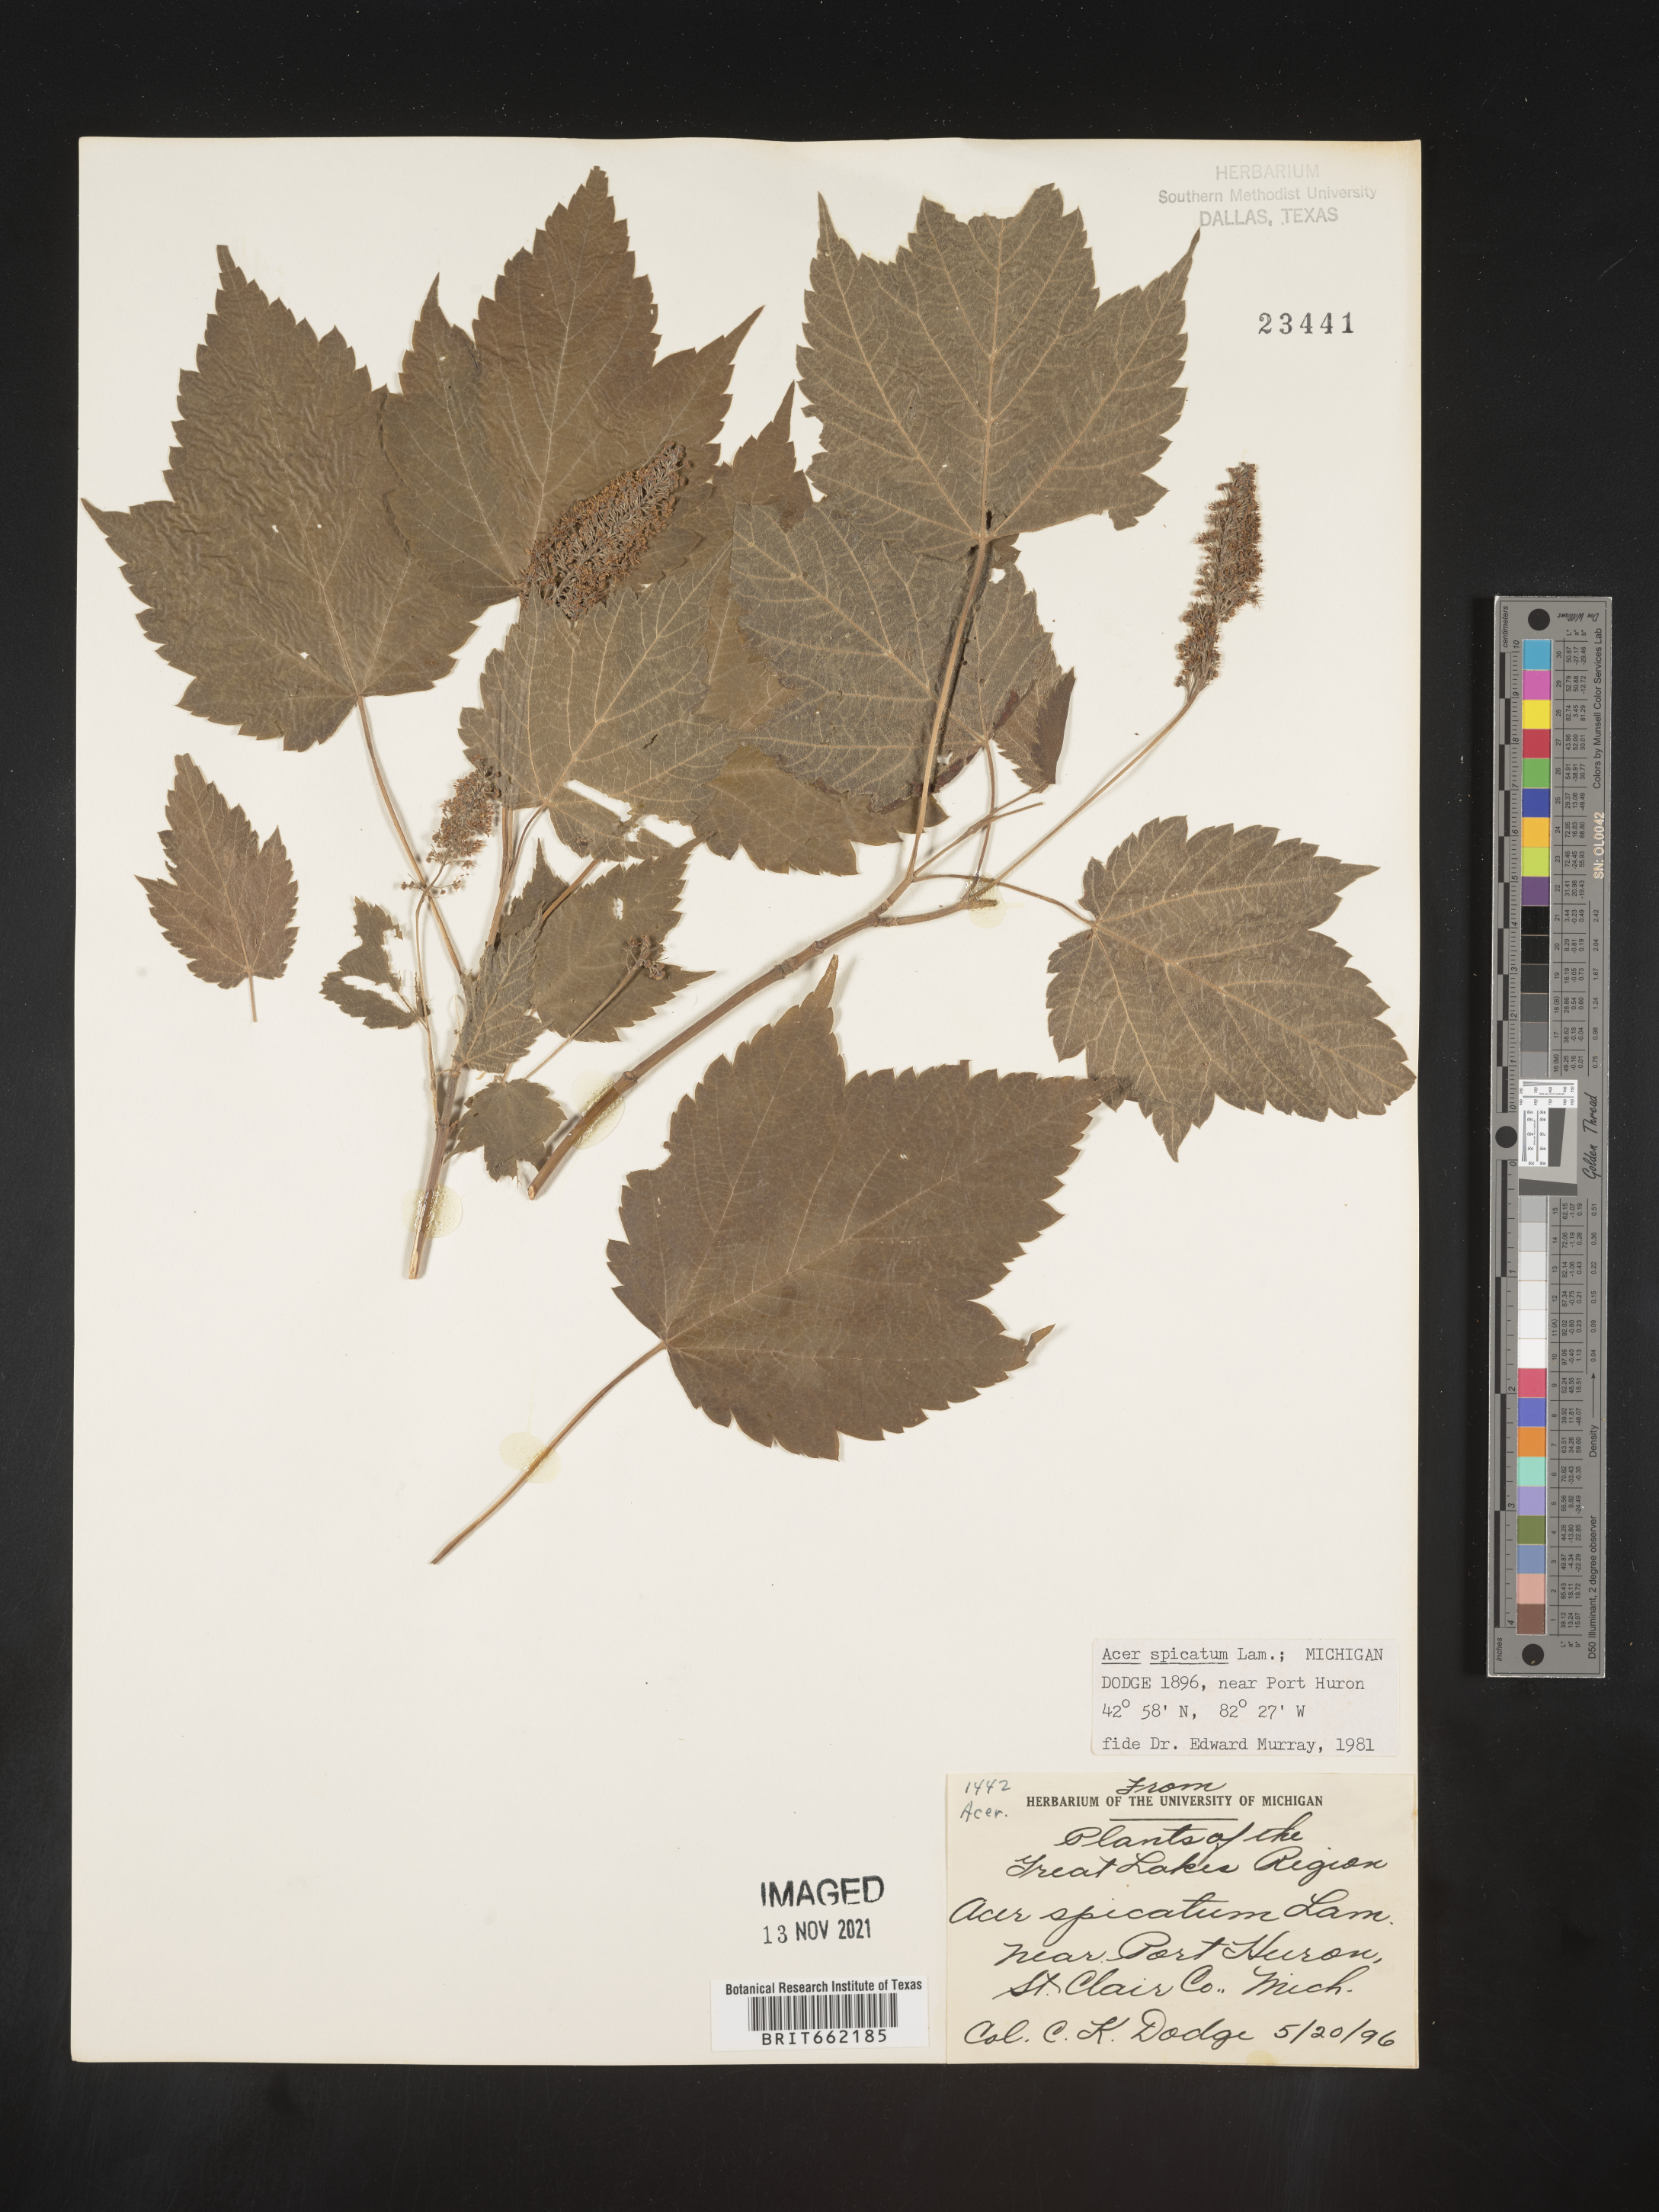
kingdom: Plantae
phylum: Tracheophyta
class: Magnoliopsida
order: Sapindales
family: Sapindaceae
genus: Acer
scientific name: Acer spicatum
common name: Mountain maple
